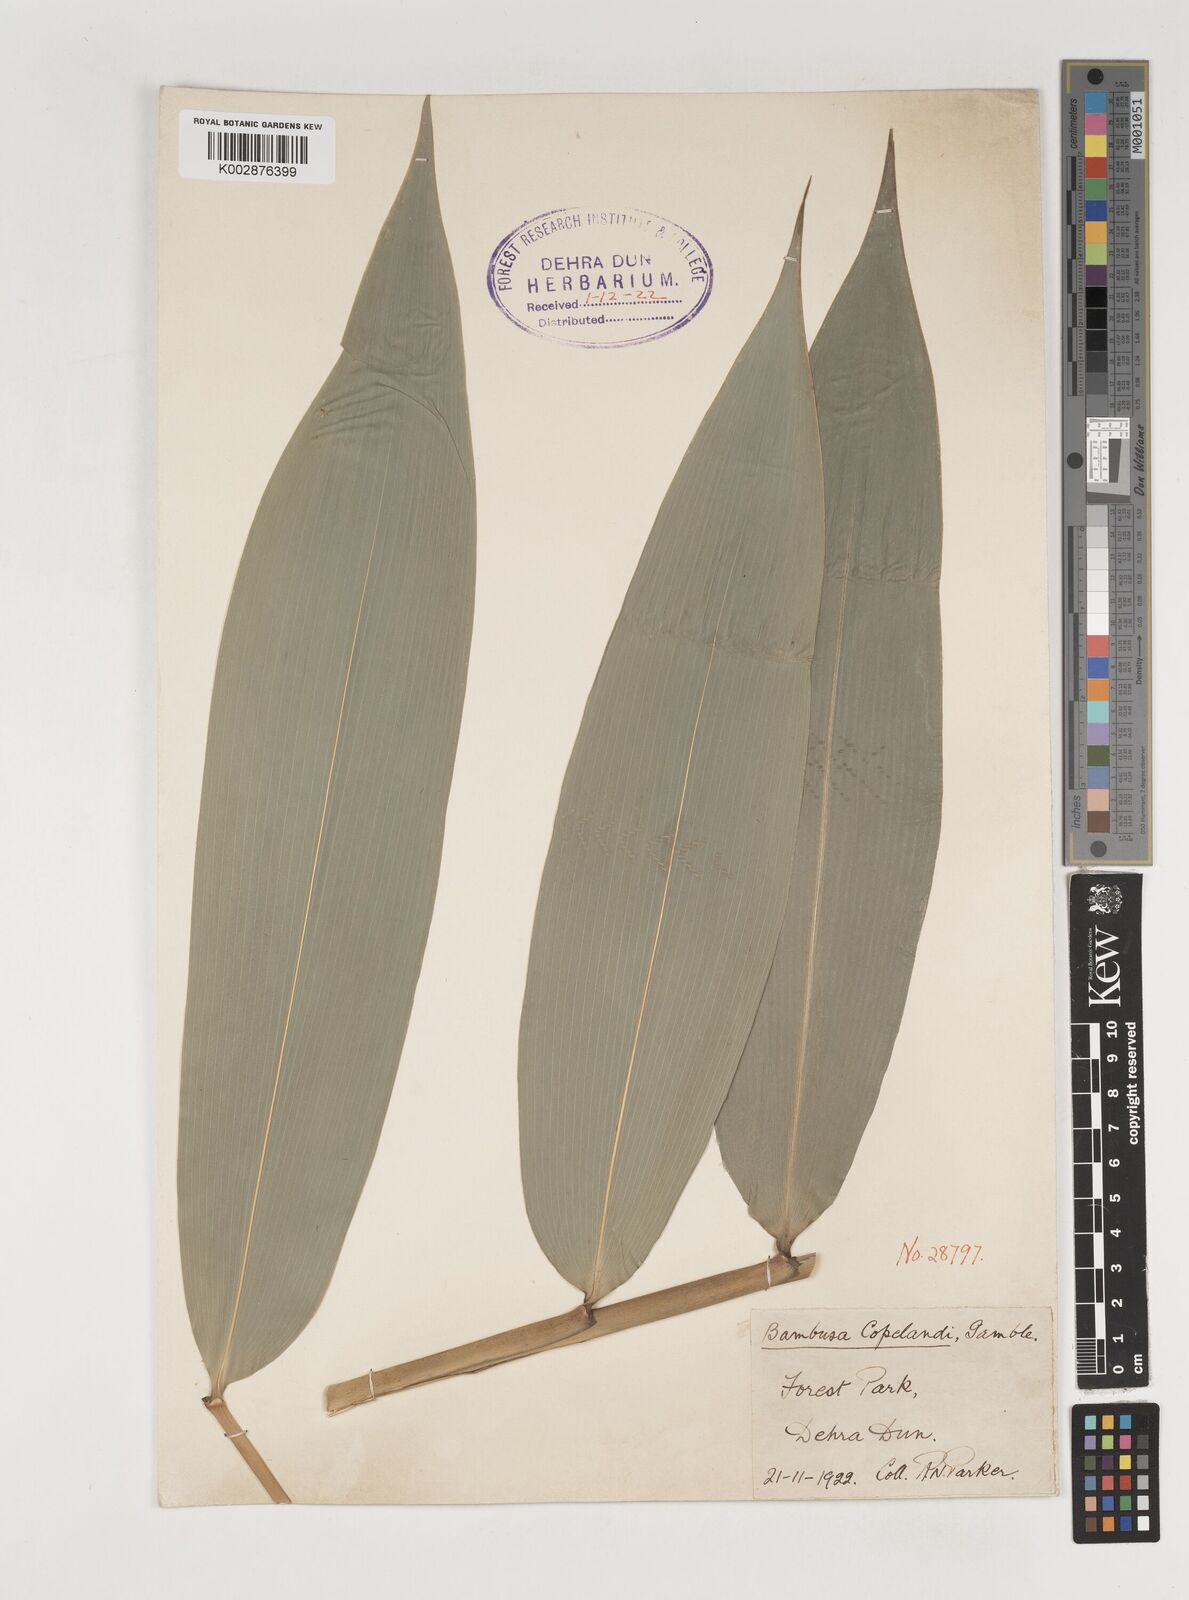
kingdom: Plantae
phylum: Tracheophyta
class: Liliopsida
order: Poales
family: Poaceae
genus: Bambusa
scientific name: Bambusa copelandii
